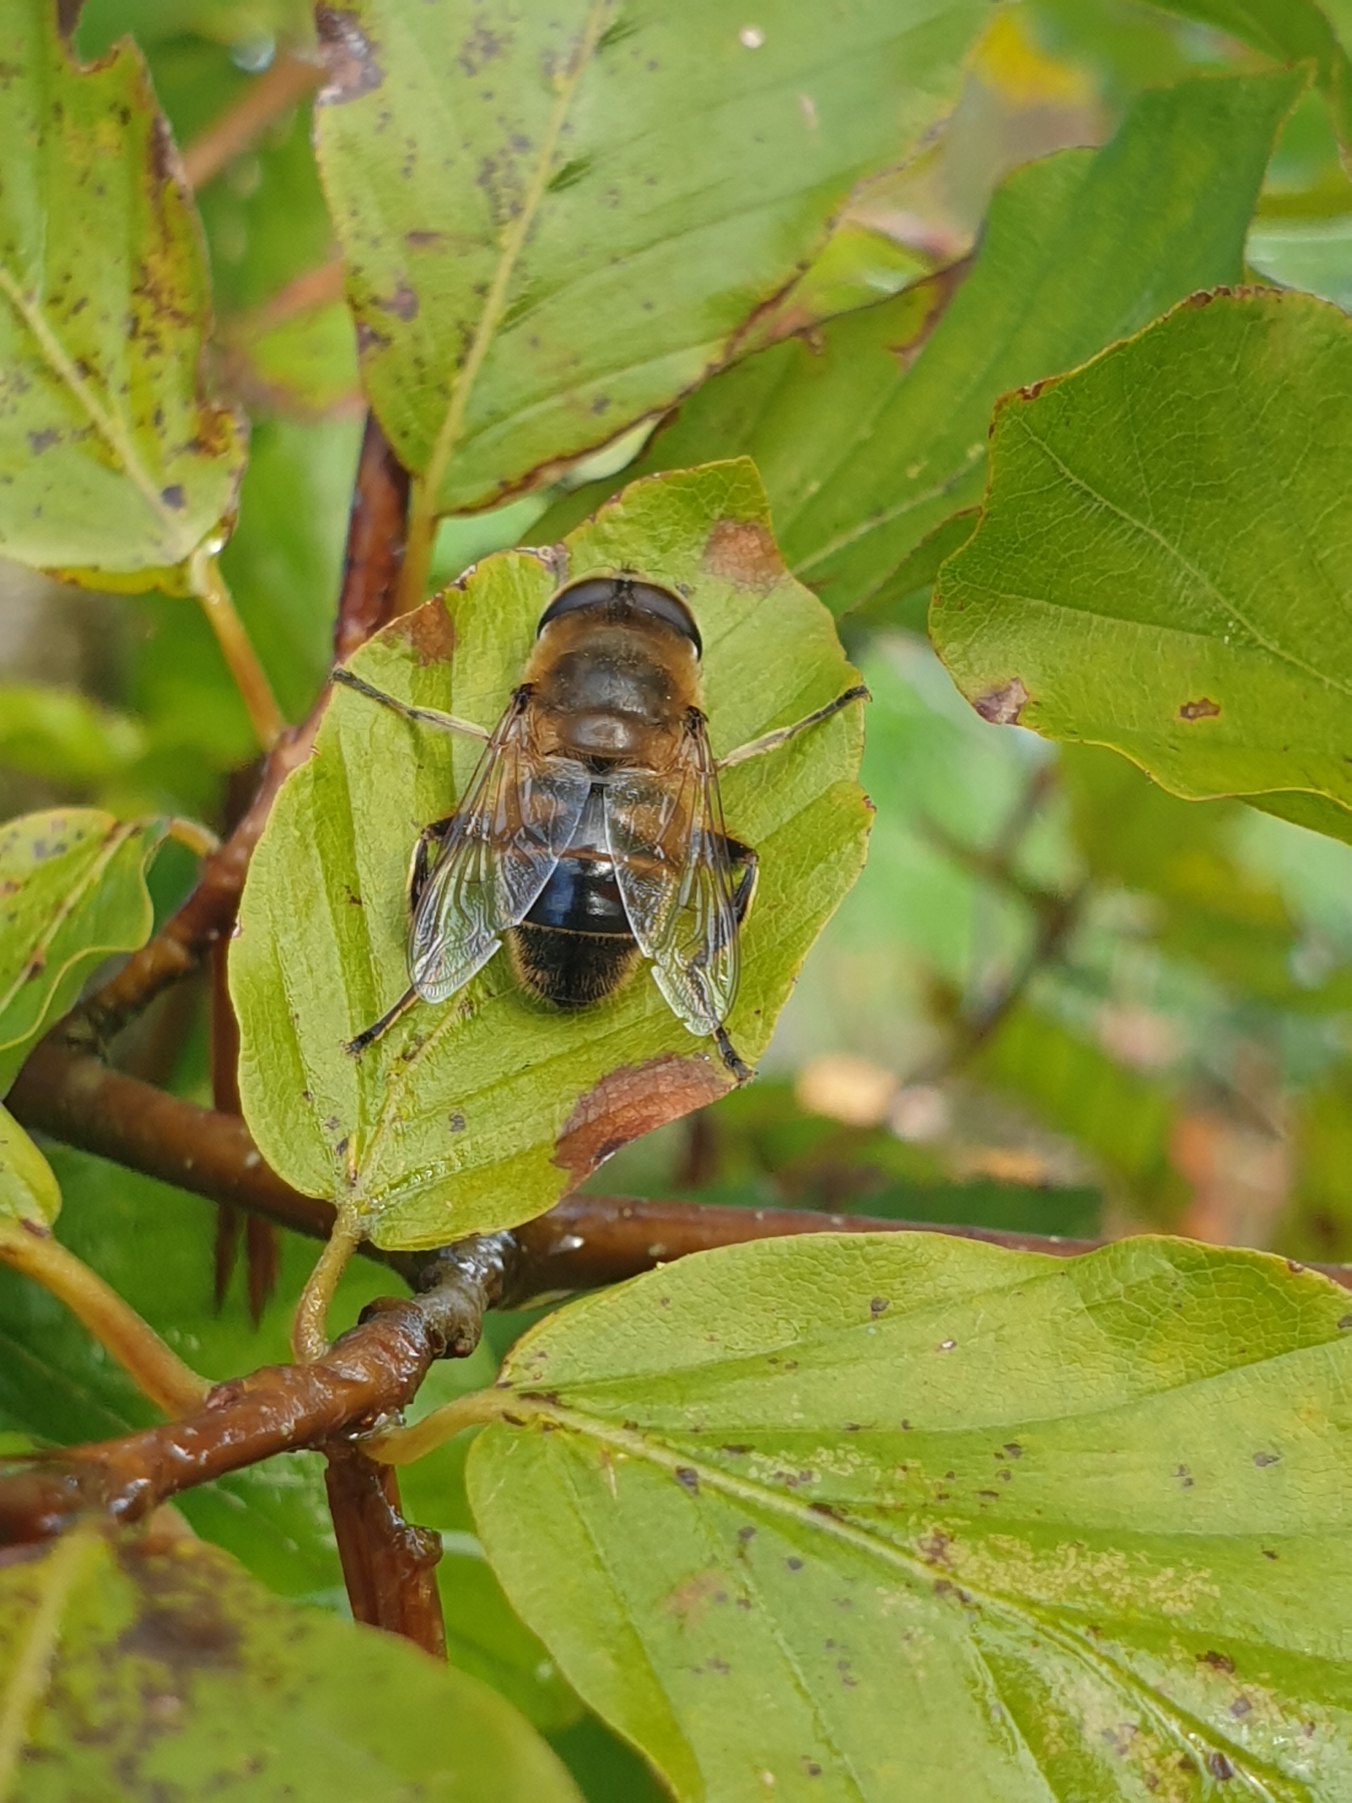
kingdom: Animalia
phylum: Arthropoda
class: Insecta
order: Diptera
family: Syrphidae
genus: Eristalis
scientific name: Eristalis tenax
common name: Droneflue
